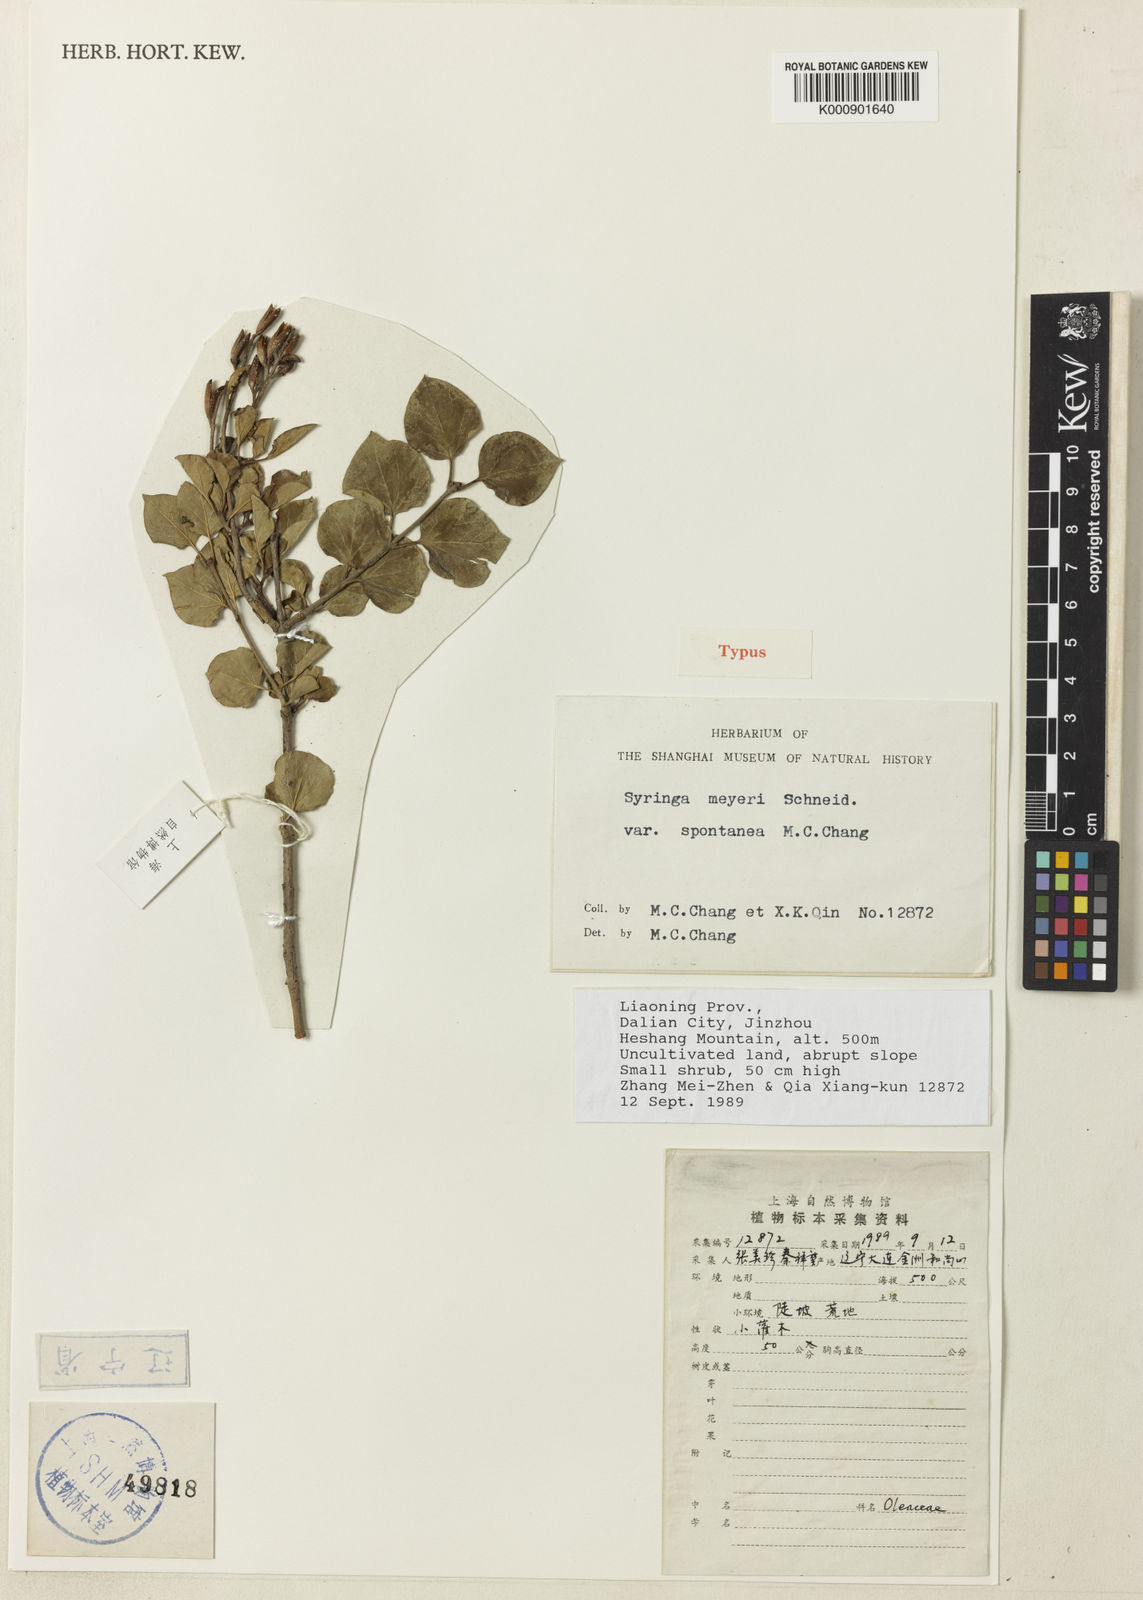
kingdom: Plantae
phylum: Tracheophyta
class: Magnoliopsida
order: Lamiales
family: Oleaceae
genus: Syringa
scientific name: Syringa pubescens
